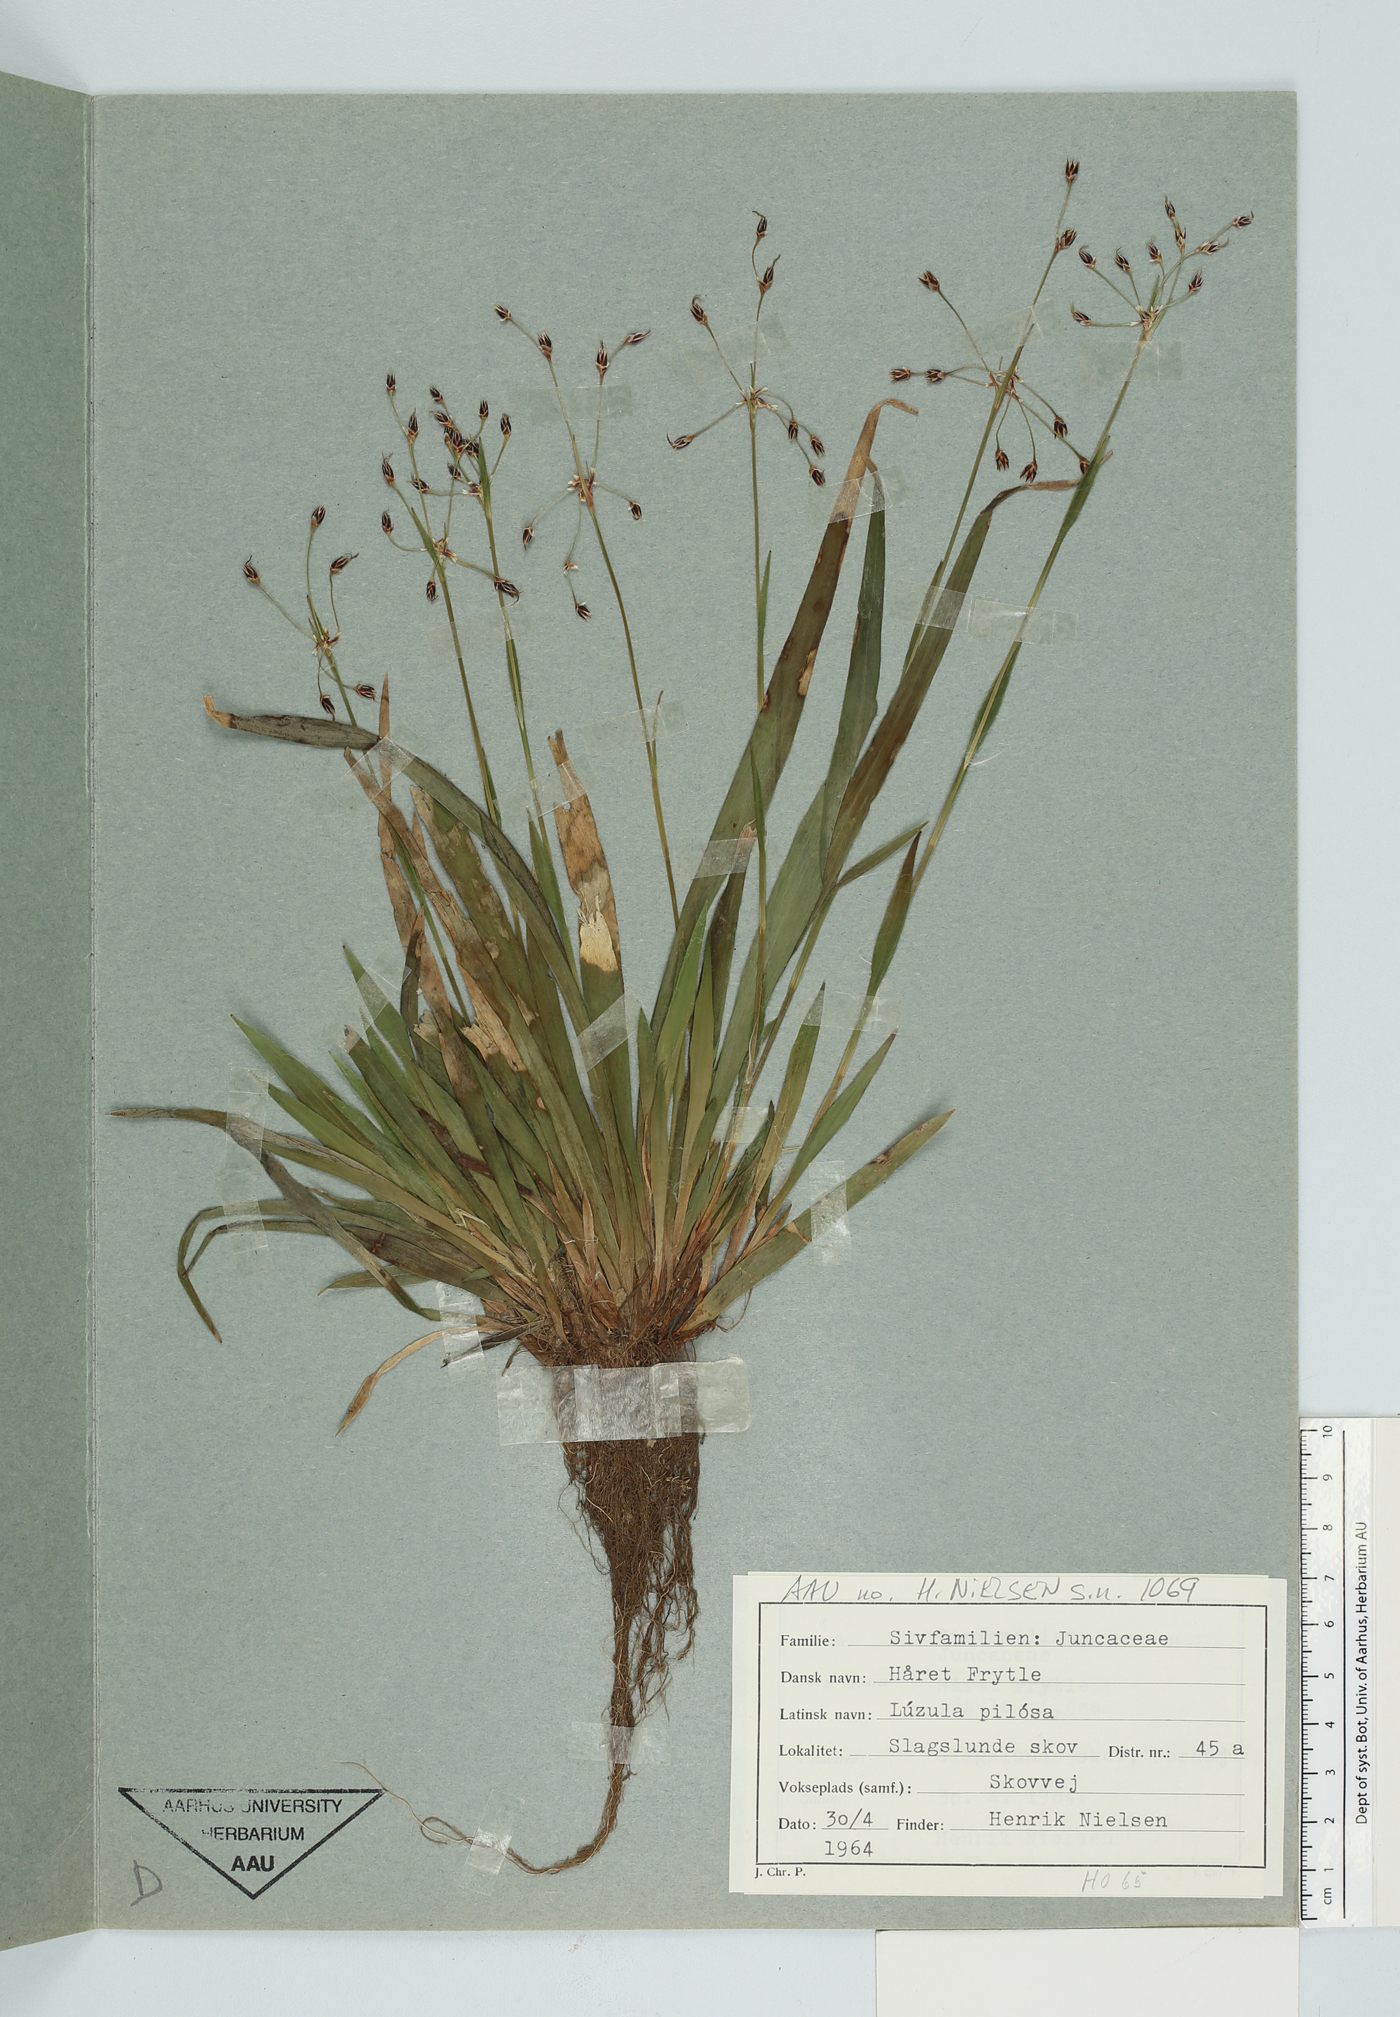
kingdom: Plantae
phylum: Tracheophyta
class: Liliopsida
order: Poales
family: Juncaceae
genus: Luzula
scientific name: Luzula pilosa
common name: Hairy wood-rush
